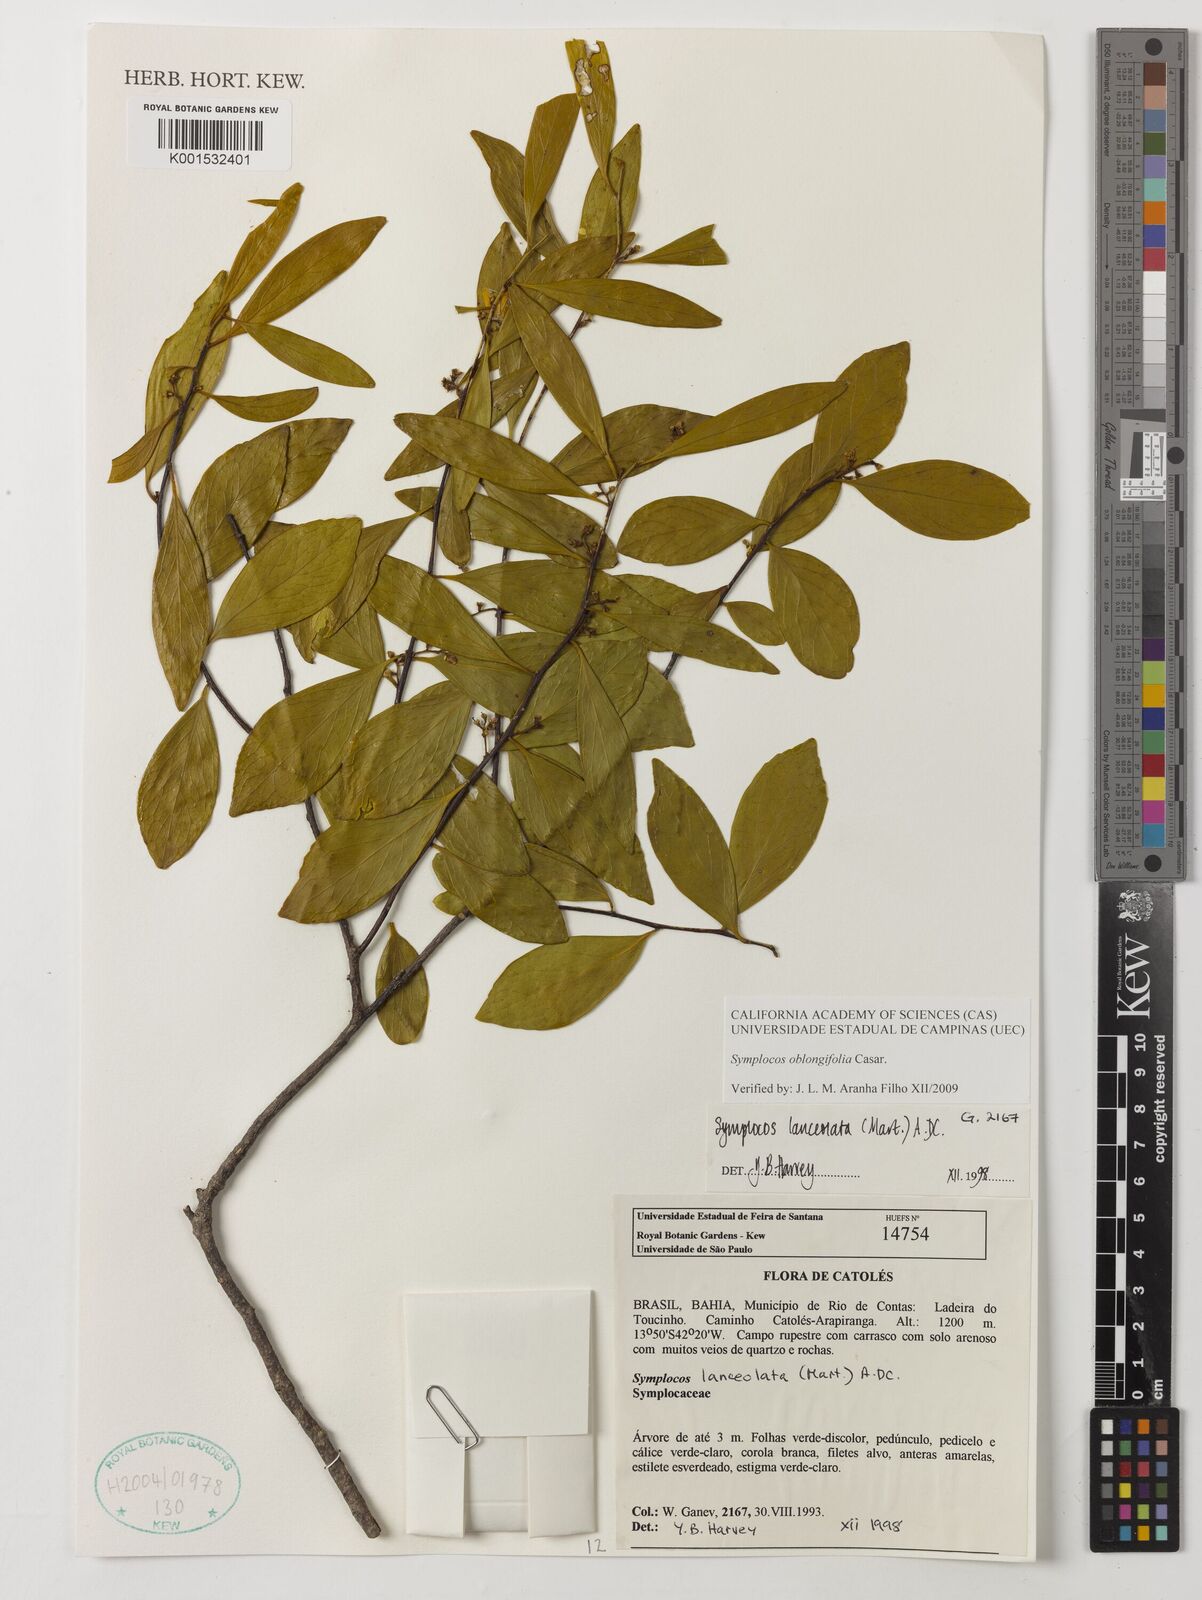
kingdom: Plantae
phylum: Tracheophyta
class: Magnoliopsida
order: Ericales
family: Symplocaceae
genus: Symplocos
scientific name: Symplocos oblongifolia
